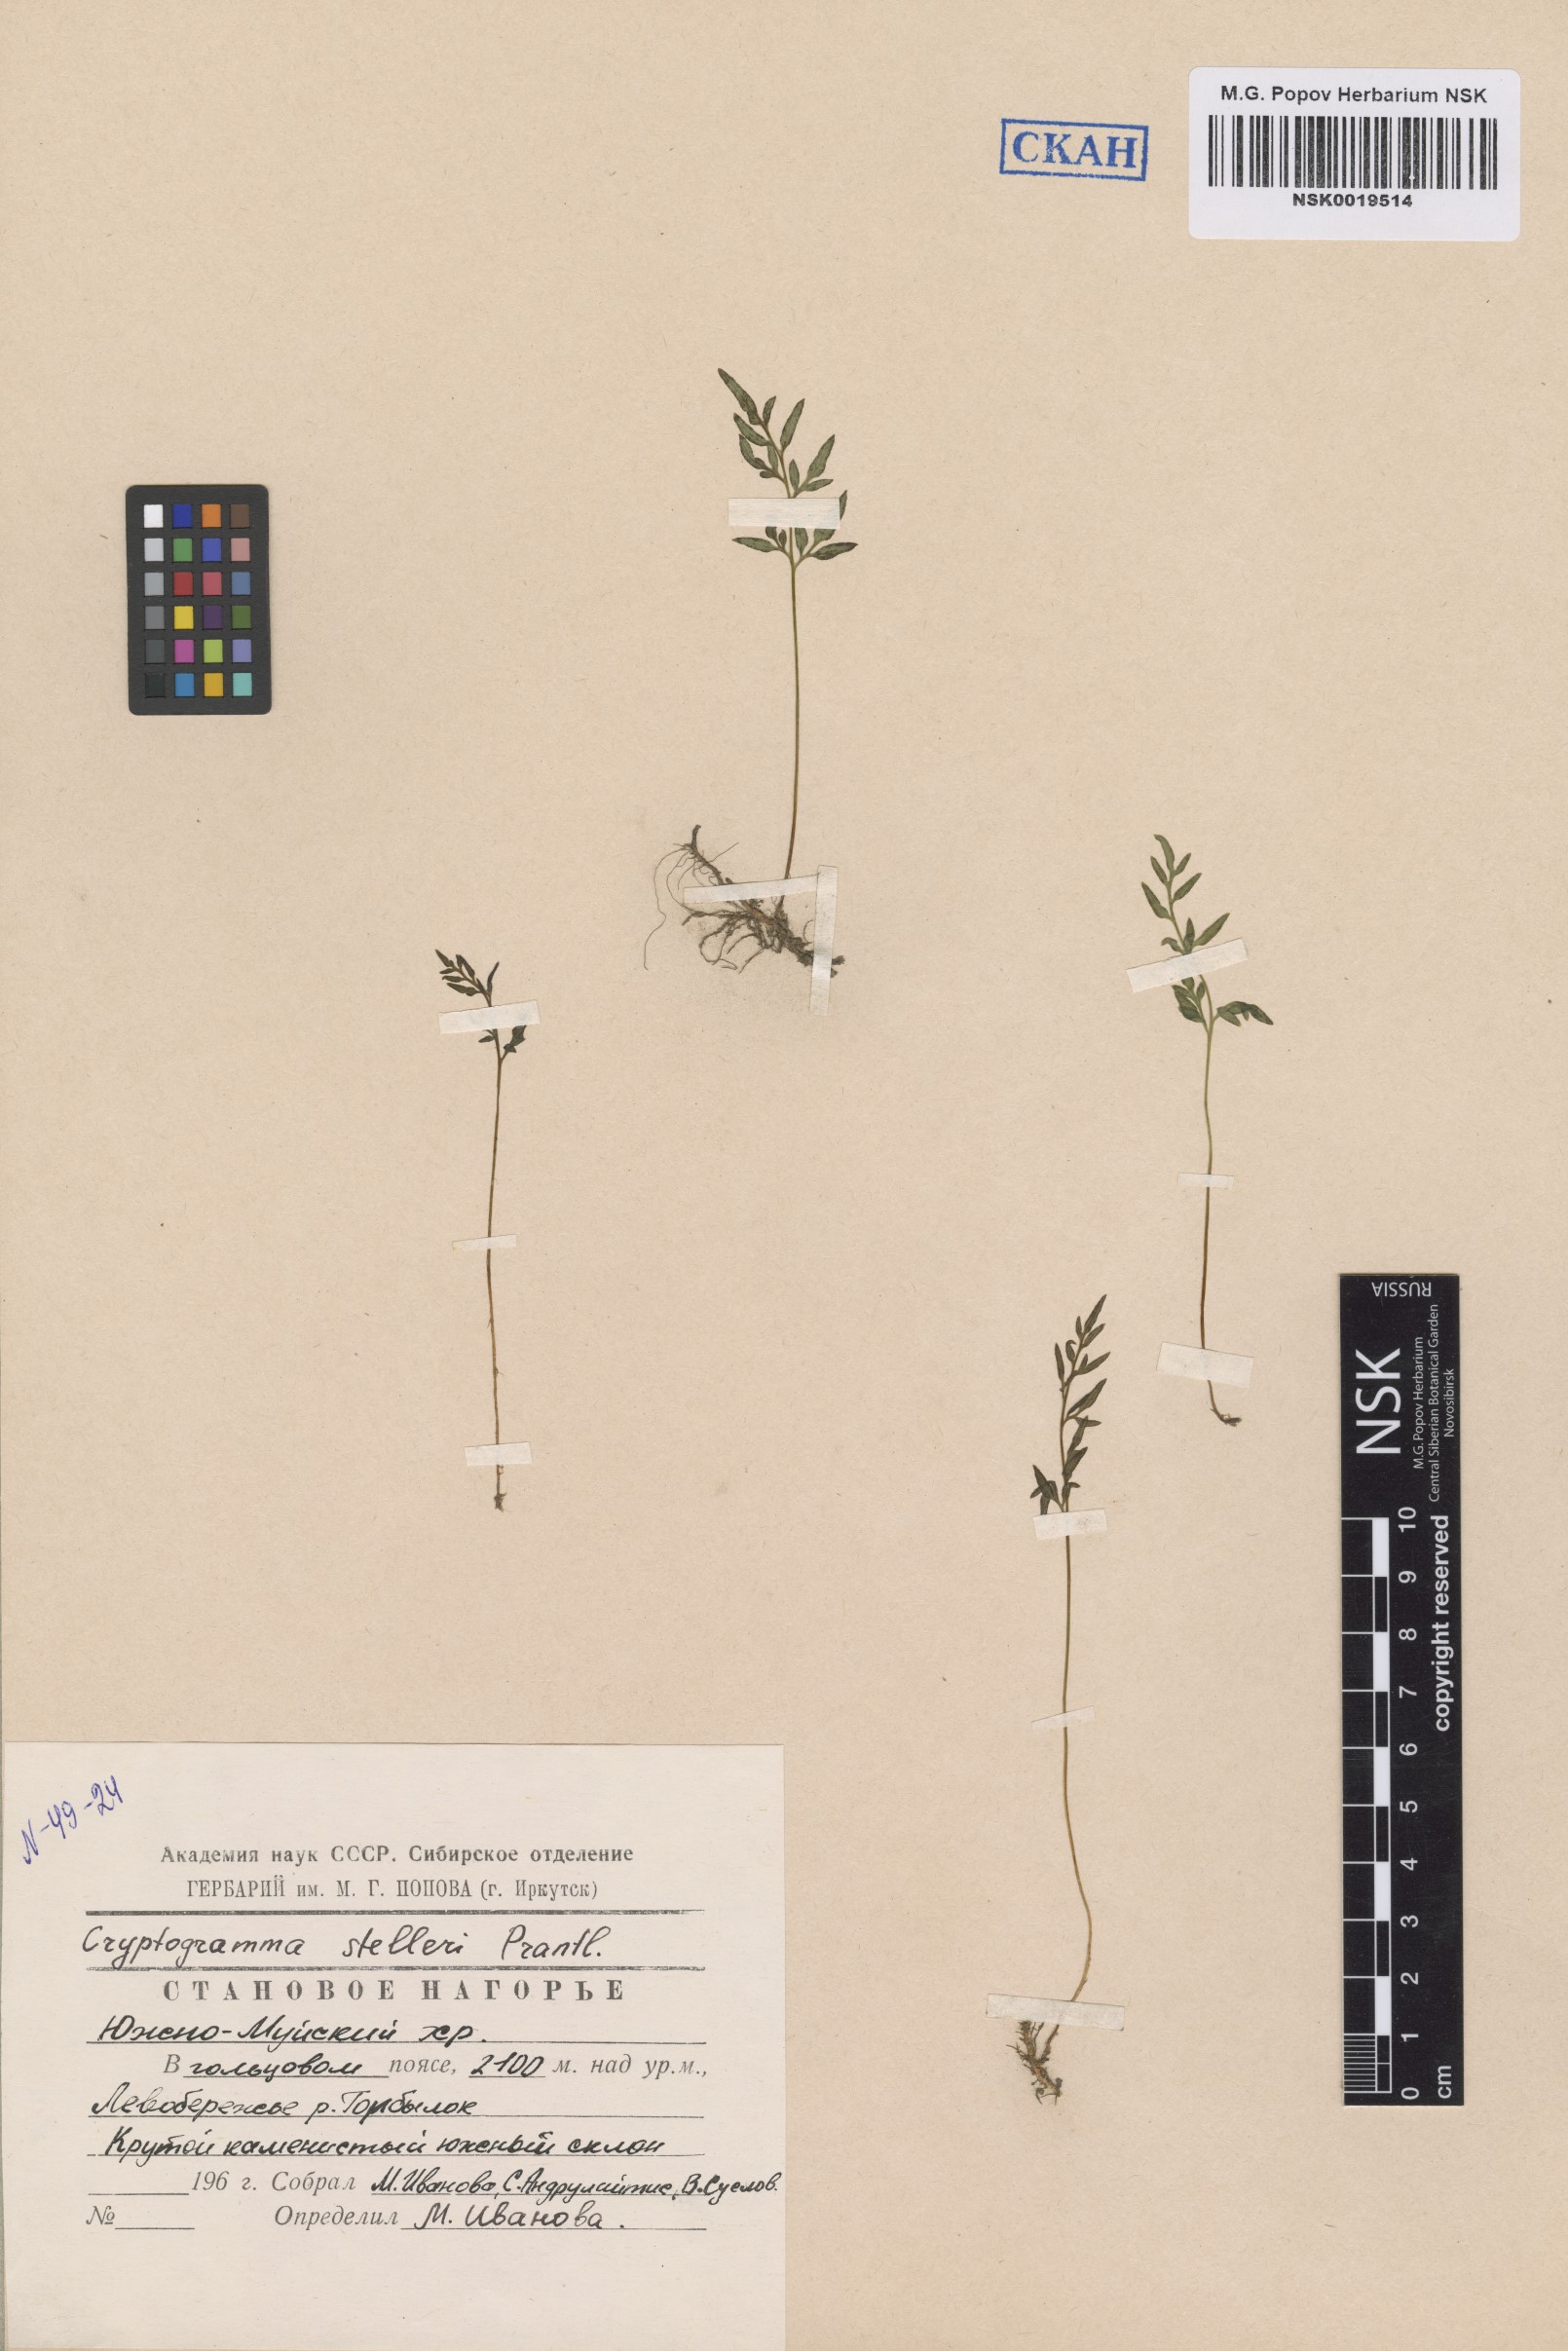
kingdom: Plantae
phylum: Tracheophyta
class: Polypodiopsida
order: Polypodiales
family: Pteridaceae
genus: Cryptogramma
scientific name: Cryptogramma stelleri
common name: Cliff-brake
